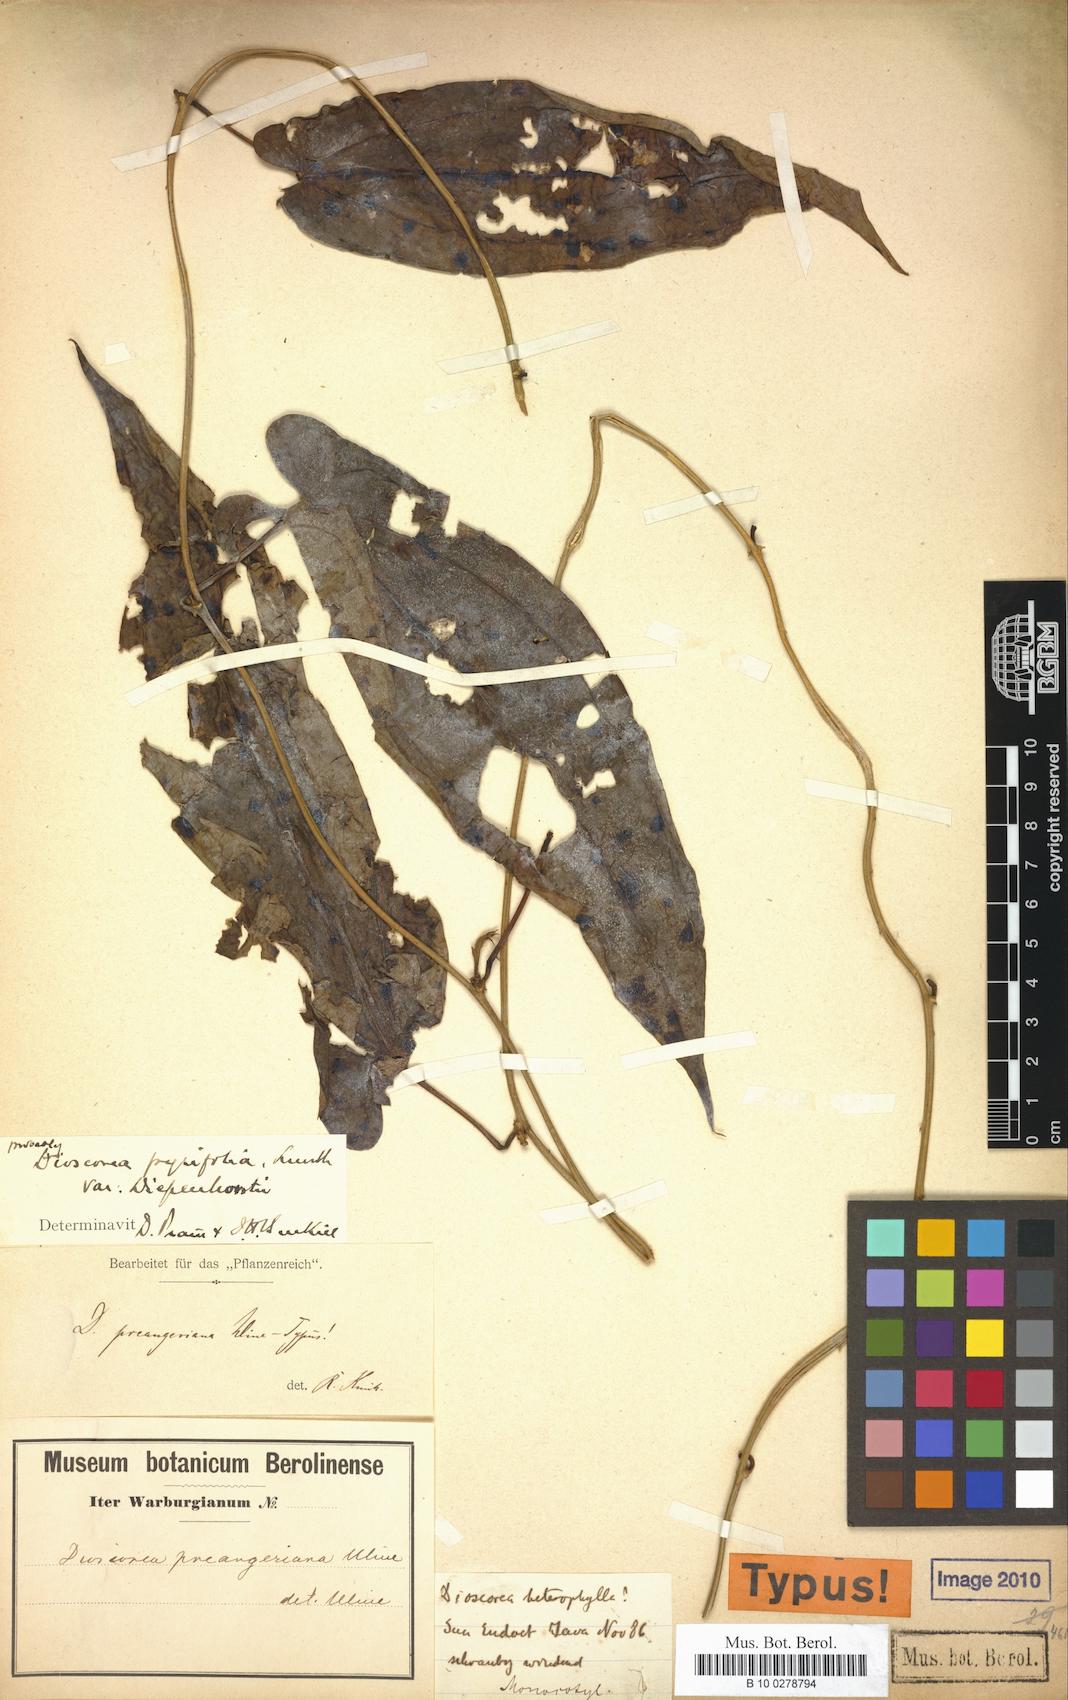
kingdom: Plantae
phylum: Tracheophyta
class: Liliopsida
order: Dioscoreales
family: Dioscoreaceae
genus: Dioscorea
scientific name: Dioscorea preangeriana
